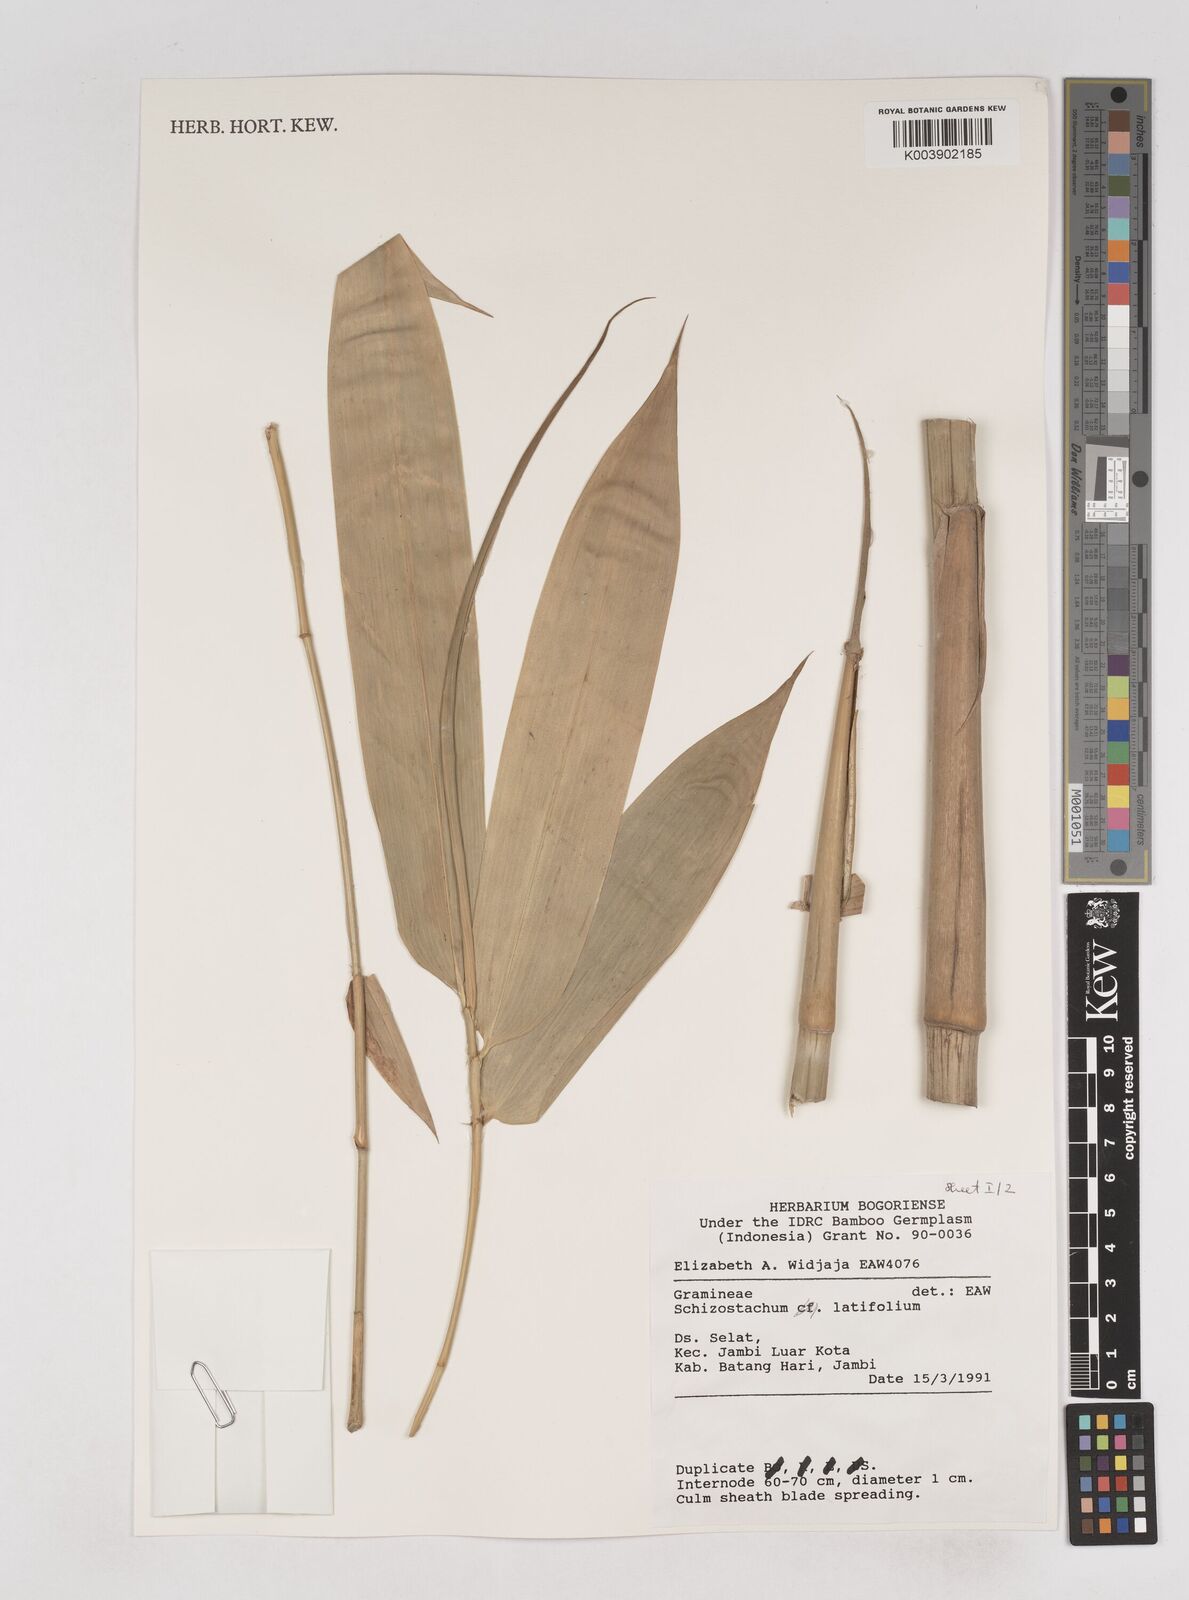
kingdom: Plantae
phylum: Tracheophyta
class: Liliopsida
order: Poales
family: Poaceae
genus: Schizostachyum
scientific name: Schizostachyum latifolium
